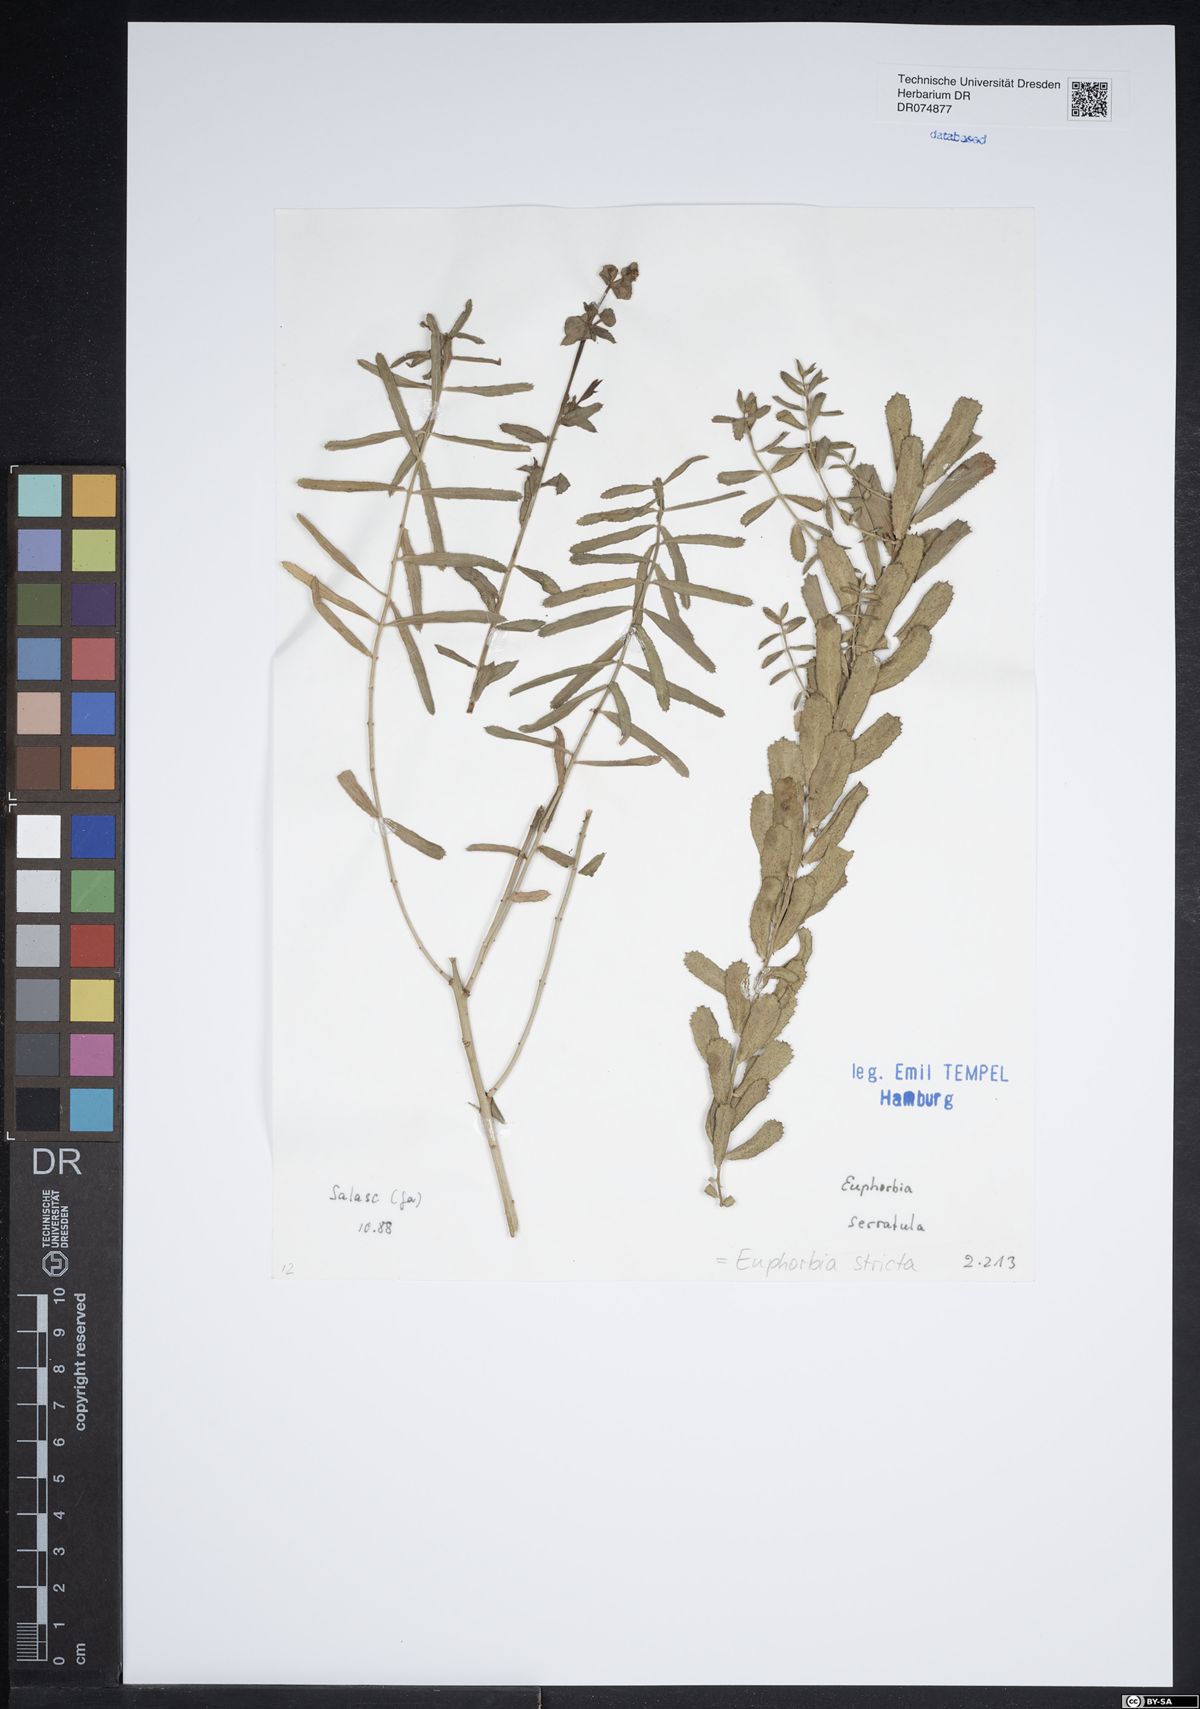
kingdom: Plantae
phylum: Tracheophyta
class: Magnoliopsida
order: Malpighiales
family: Euphorbiaceae
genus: Euphorbia
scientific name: Euphorbia stricta
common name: Upright spurge
